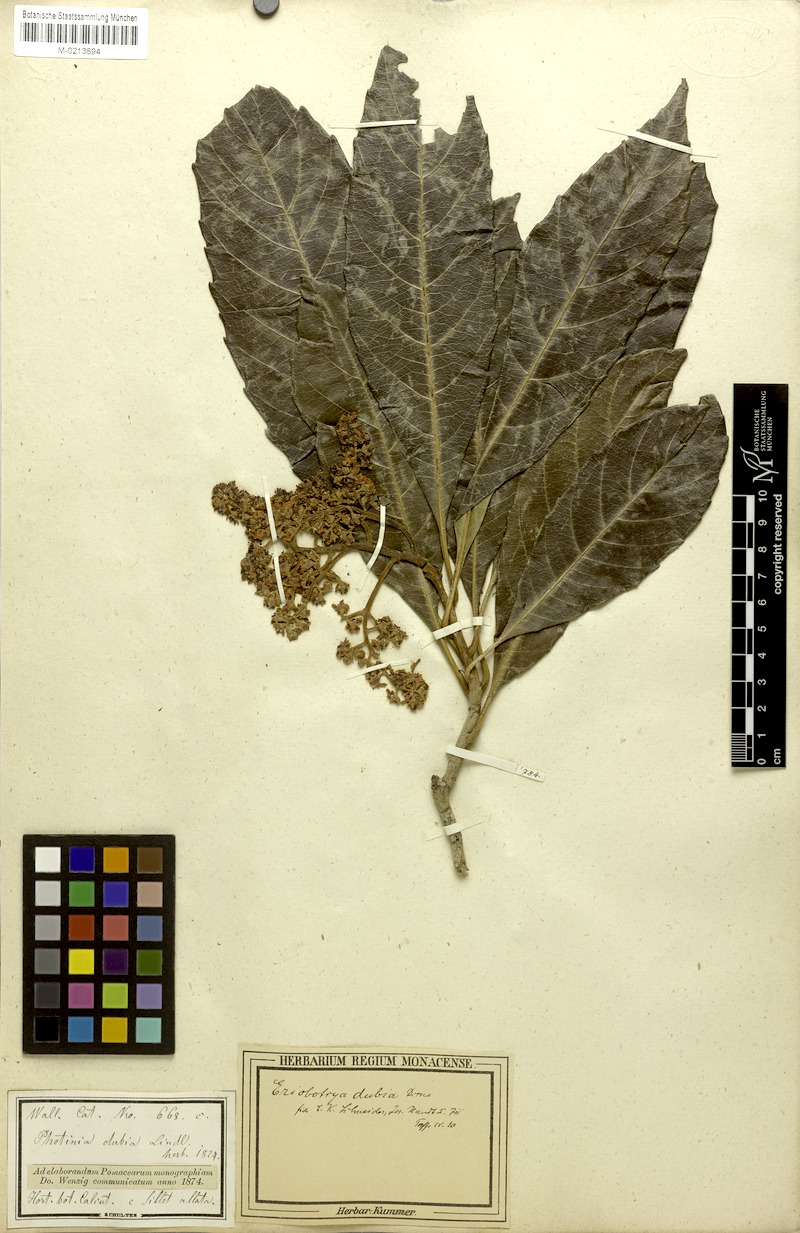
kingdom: Plantae
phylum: Tracheophyta
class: Magnoliopsida
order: Rosales
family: Rosaceae
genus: Rhaphiolepis
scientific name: Rhaphiolepis dubia
